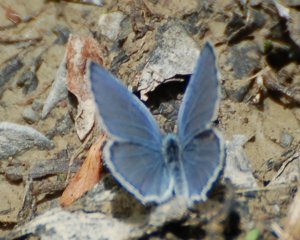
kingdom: Animalia
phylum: Arthropoda
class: Insecta
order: Lepidoptera
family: Lycaenidae
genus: Elkalyce
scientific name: Elkalyce amyntula
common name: Western Tailed-Blue
